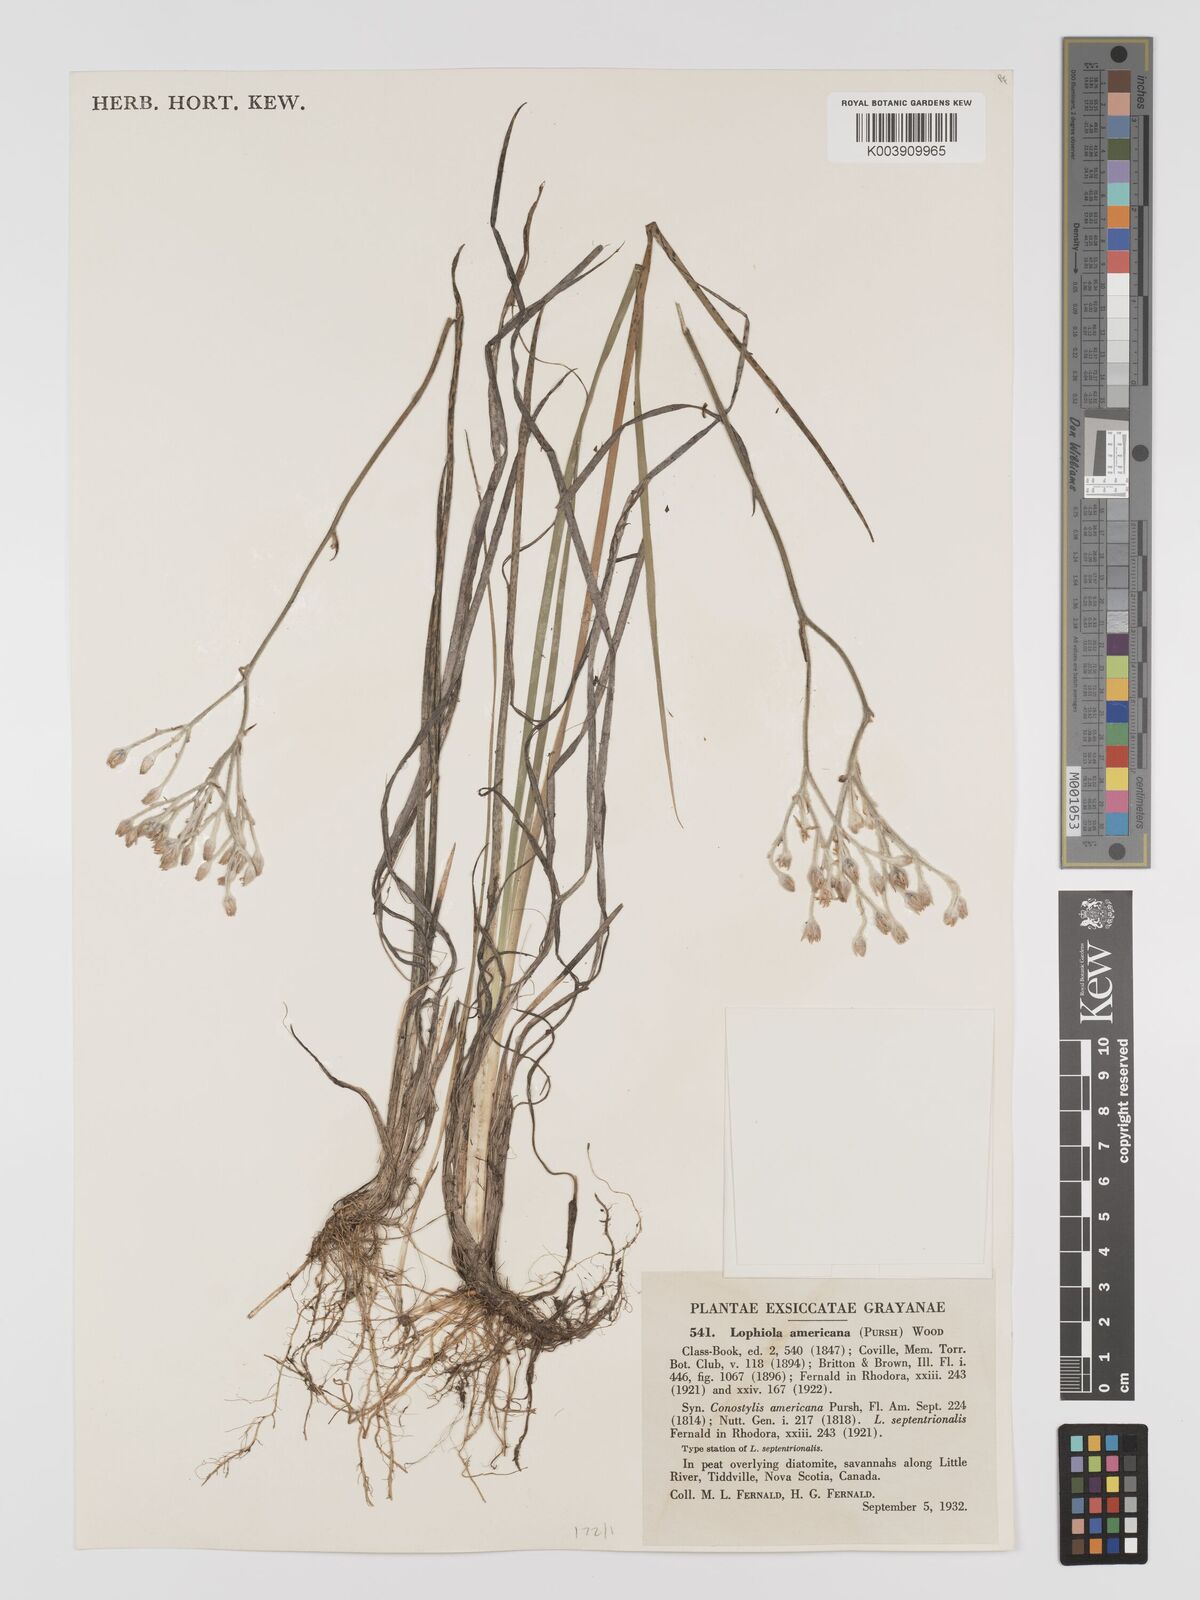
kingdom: Plantae
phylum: Tracheophyta
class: Liliopsida
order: Dioscoreales
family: Nartheciaceae
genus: Lophiola
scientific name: Lophiola aurea
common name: Golden-crest
